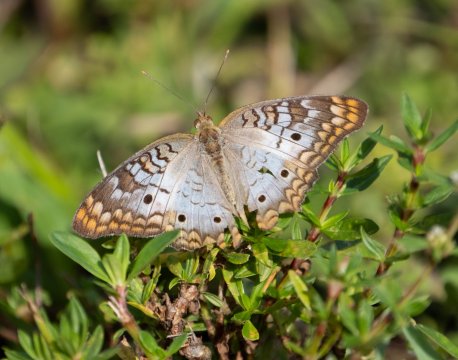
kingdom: Animalia
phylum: Arthropoda
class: Insecta
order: Lepidoptera
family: Nymphalidae
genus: Anartia
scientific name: Anartia jatrophae
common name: White Peacock
